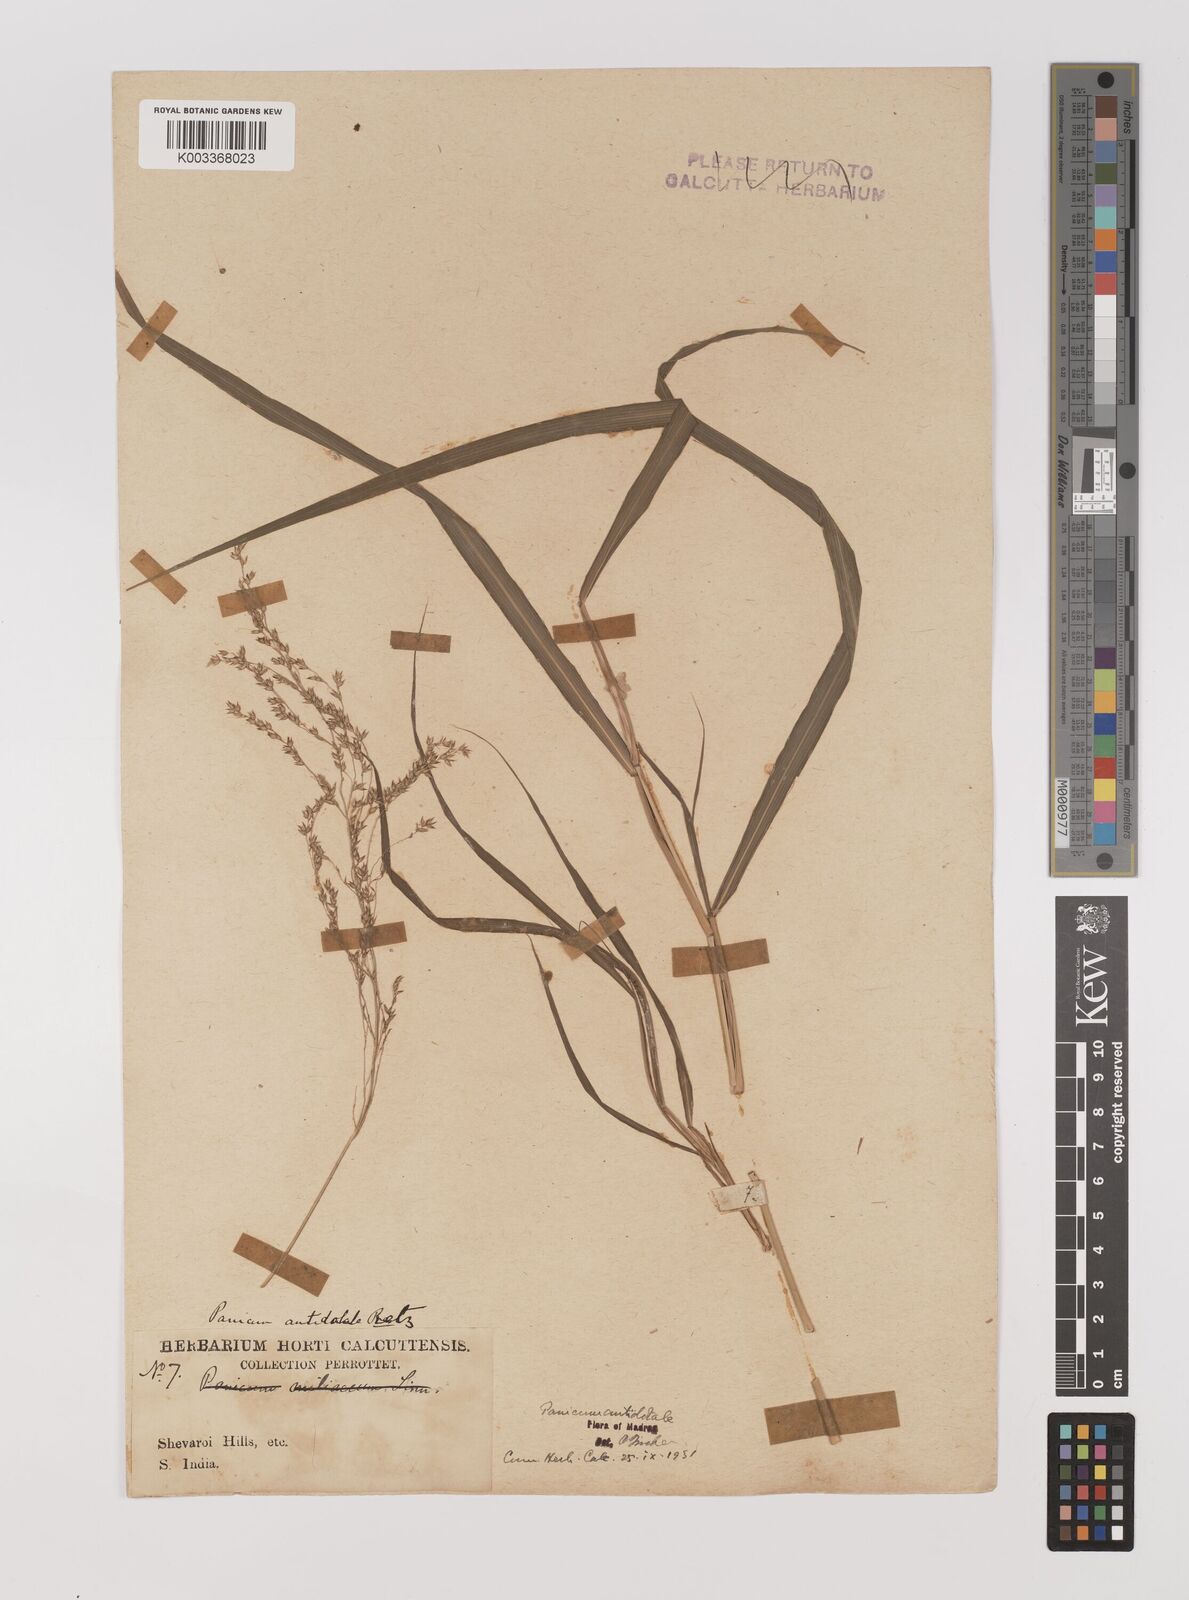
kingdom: Plantae
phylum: Tracheophyta
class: Liliopsida
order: Poales
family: Poaceae
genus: Panicum
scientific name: Panicum antidotale
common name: Blue panicum
